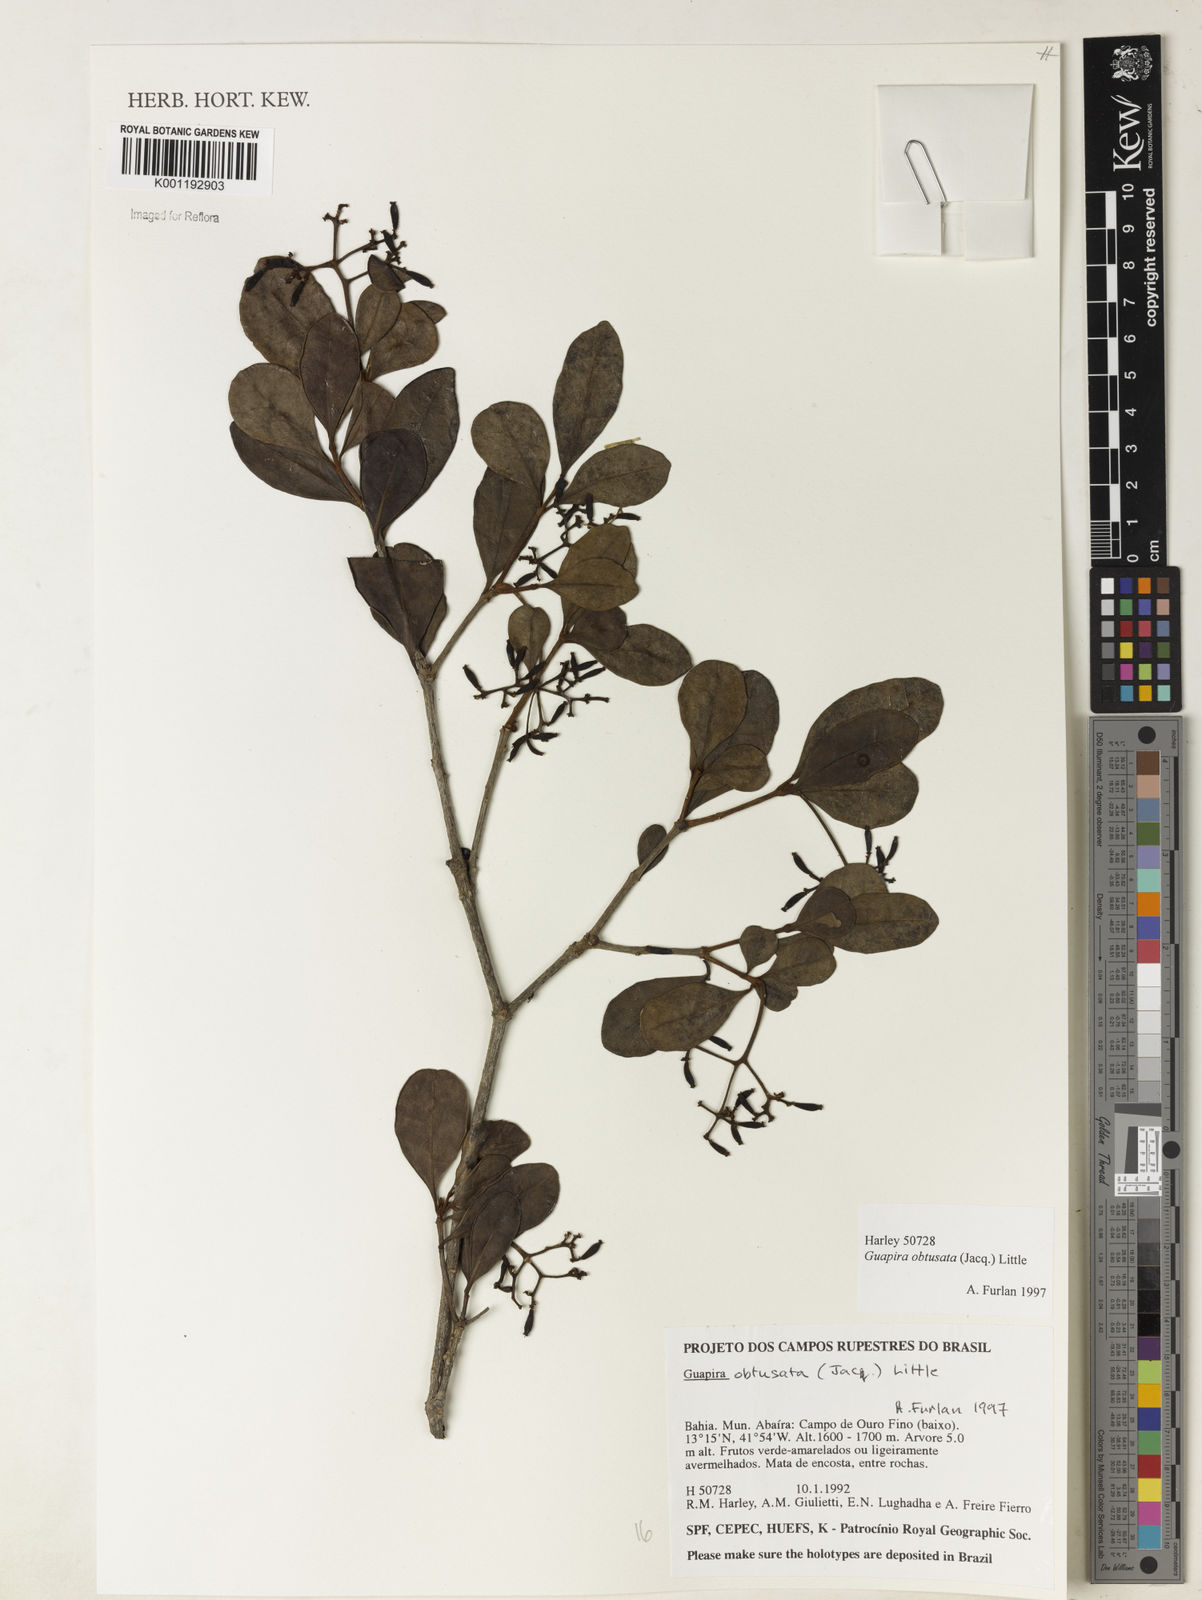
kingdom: Plantae
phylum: Tracheophyta
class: Magnoliopsida
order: Caryophyllales
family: Nyctaginaceae
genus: Guapira
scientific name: Guapira obtusata
